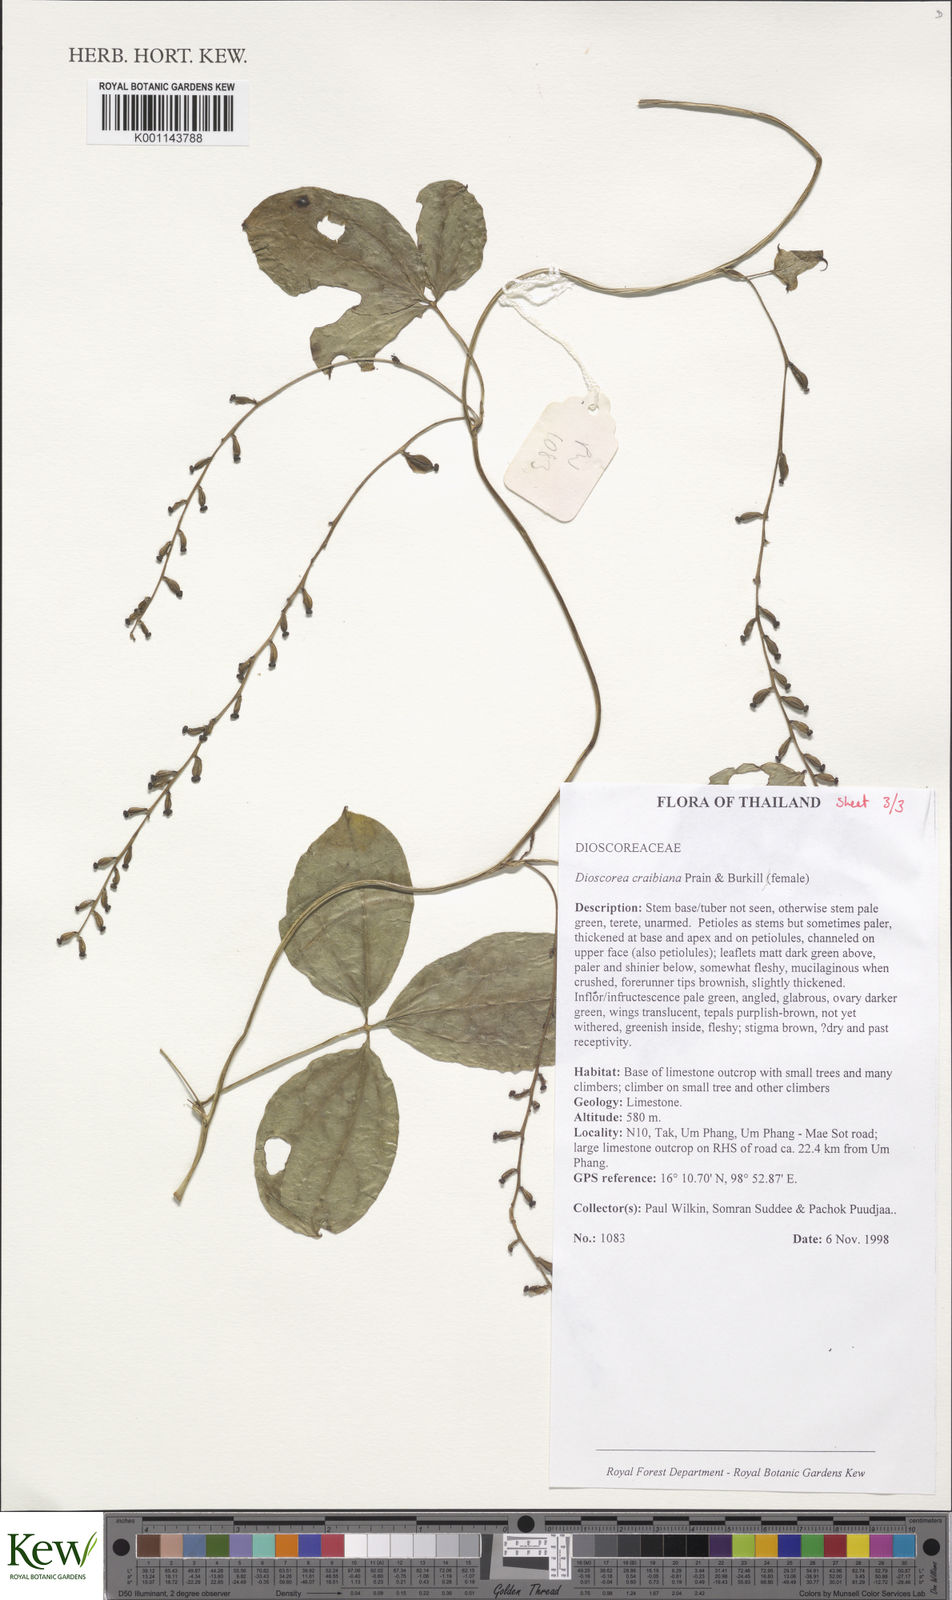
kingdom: Plantae
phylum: Tracheophyta
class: Liliopsida
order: Dioscoreales
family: Dioscoreaceae
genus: Dioscorea
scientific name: Dioscorea craibiana
